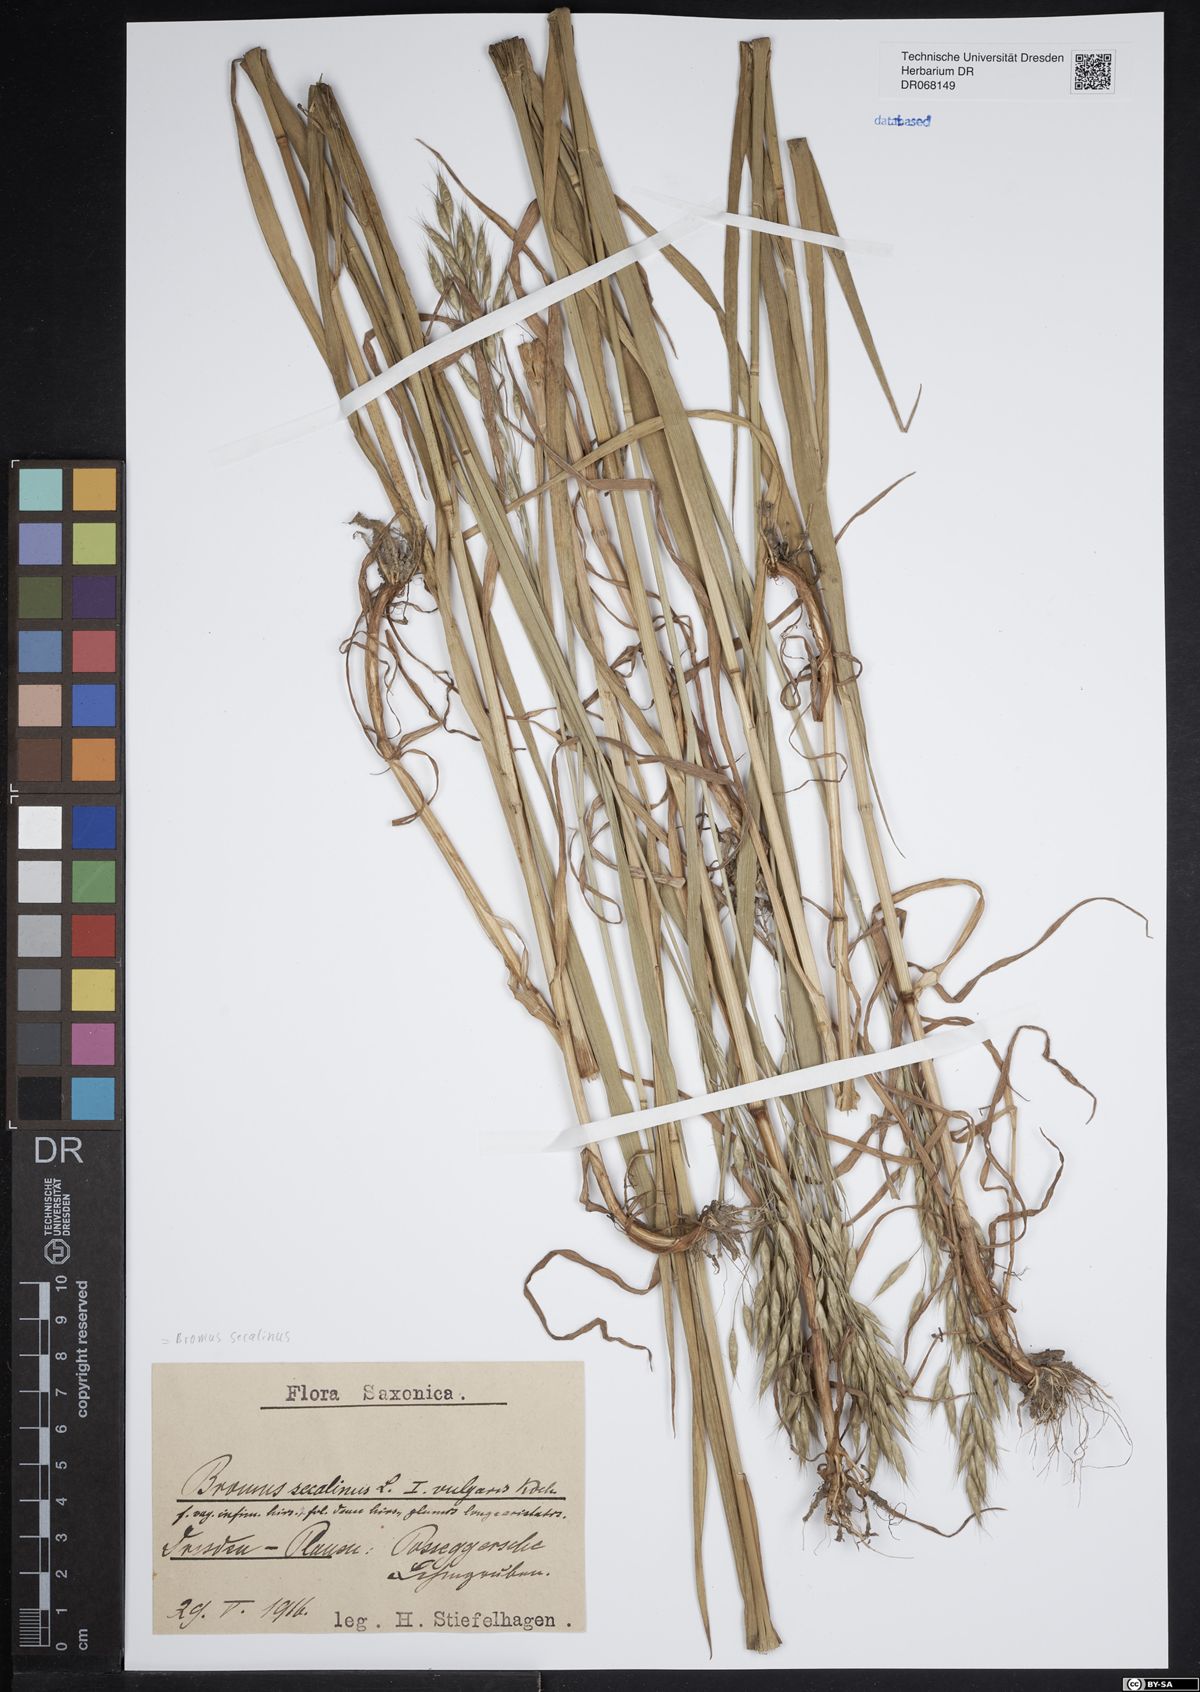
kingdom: Plantae
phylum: Tracheophyta
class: Liliopsida
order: Poales
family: Poaceae
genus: Bromus
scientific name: Bromus secalinus
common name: Rye brome
